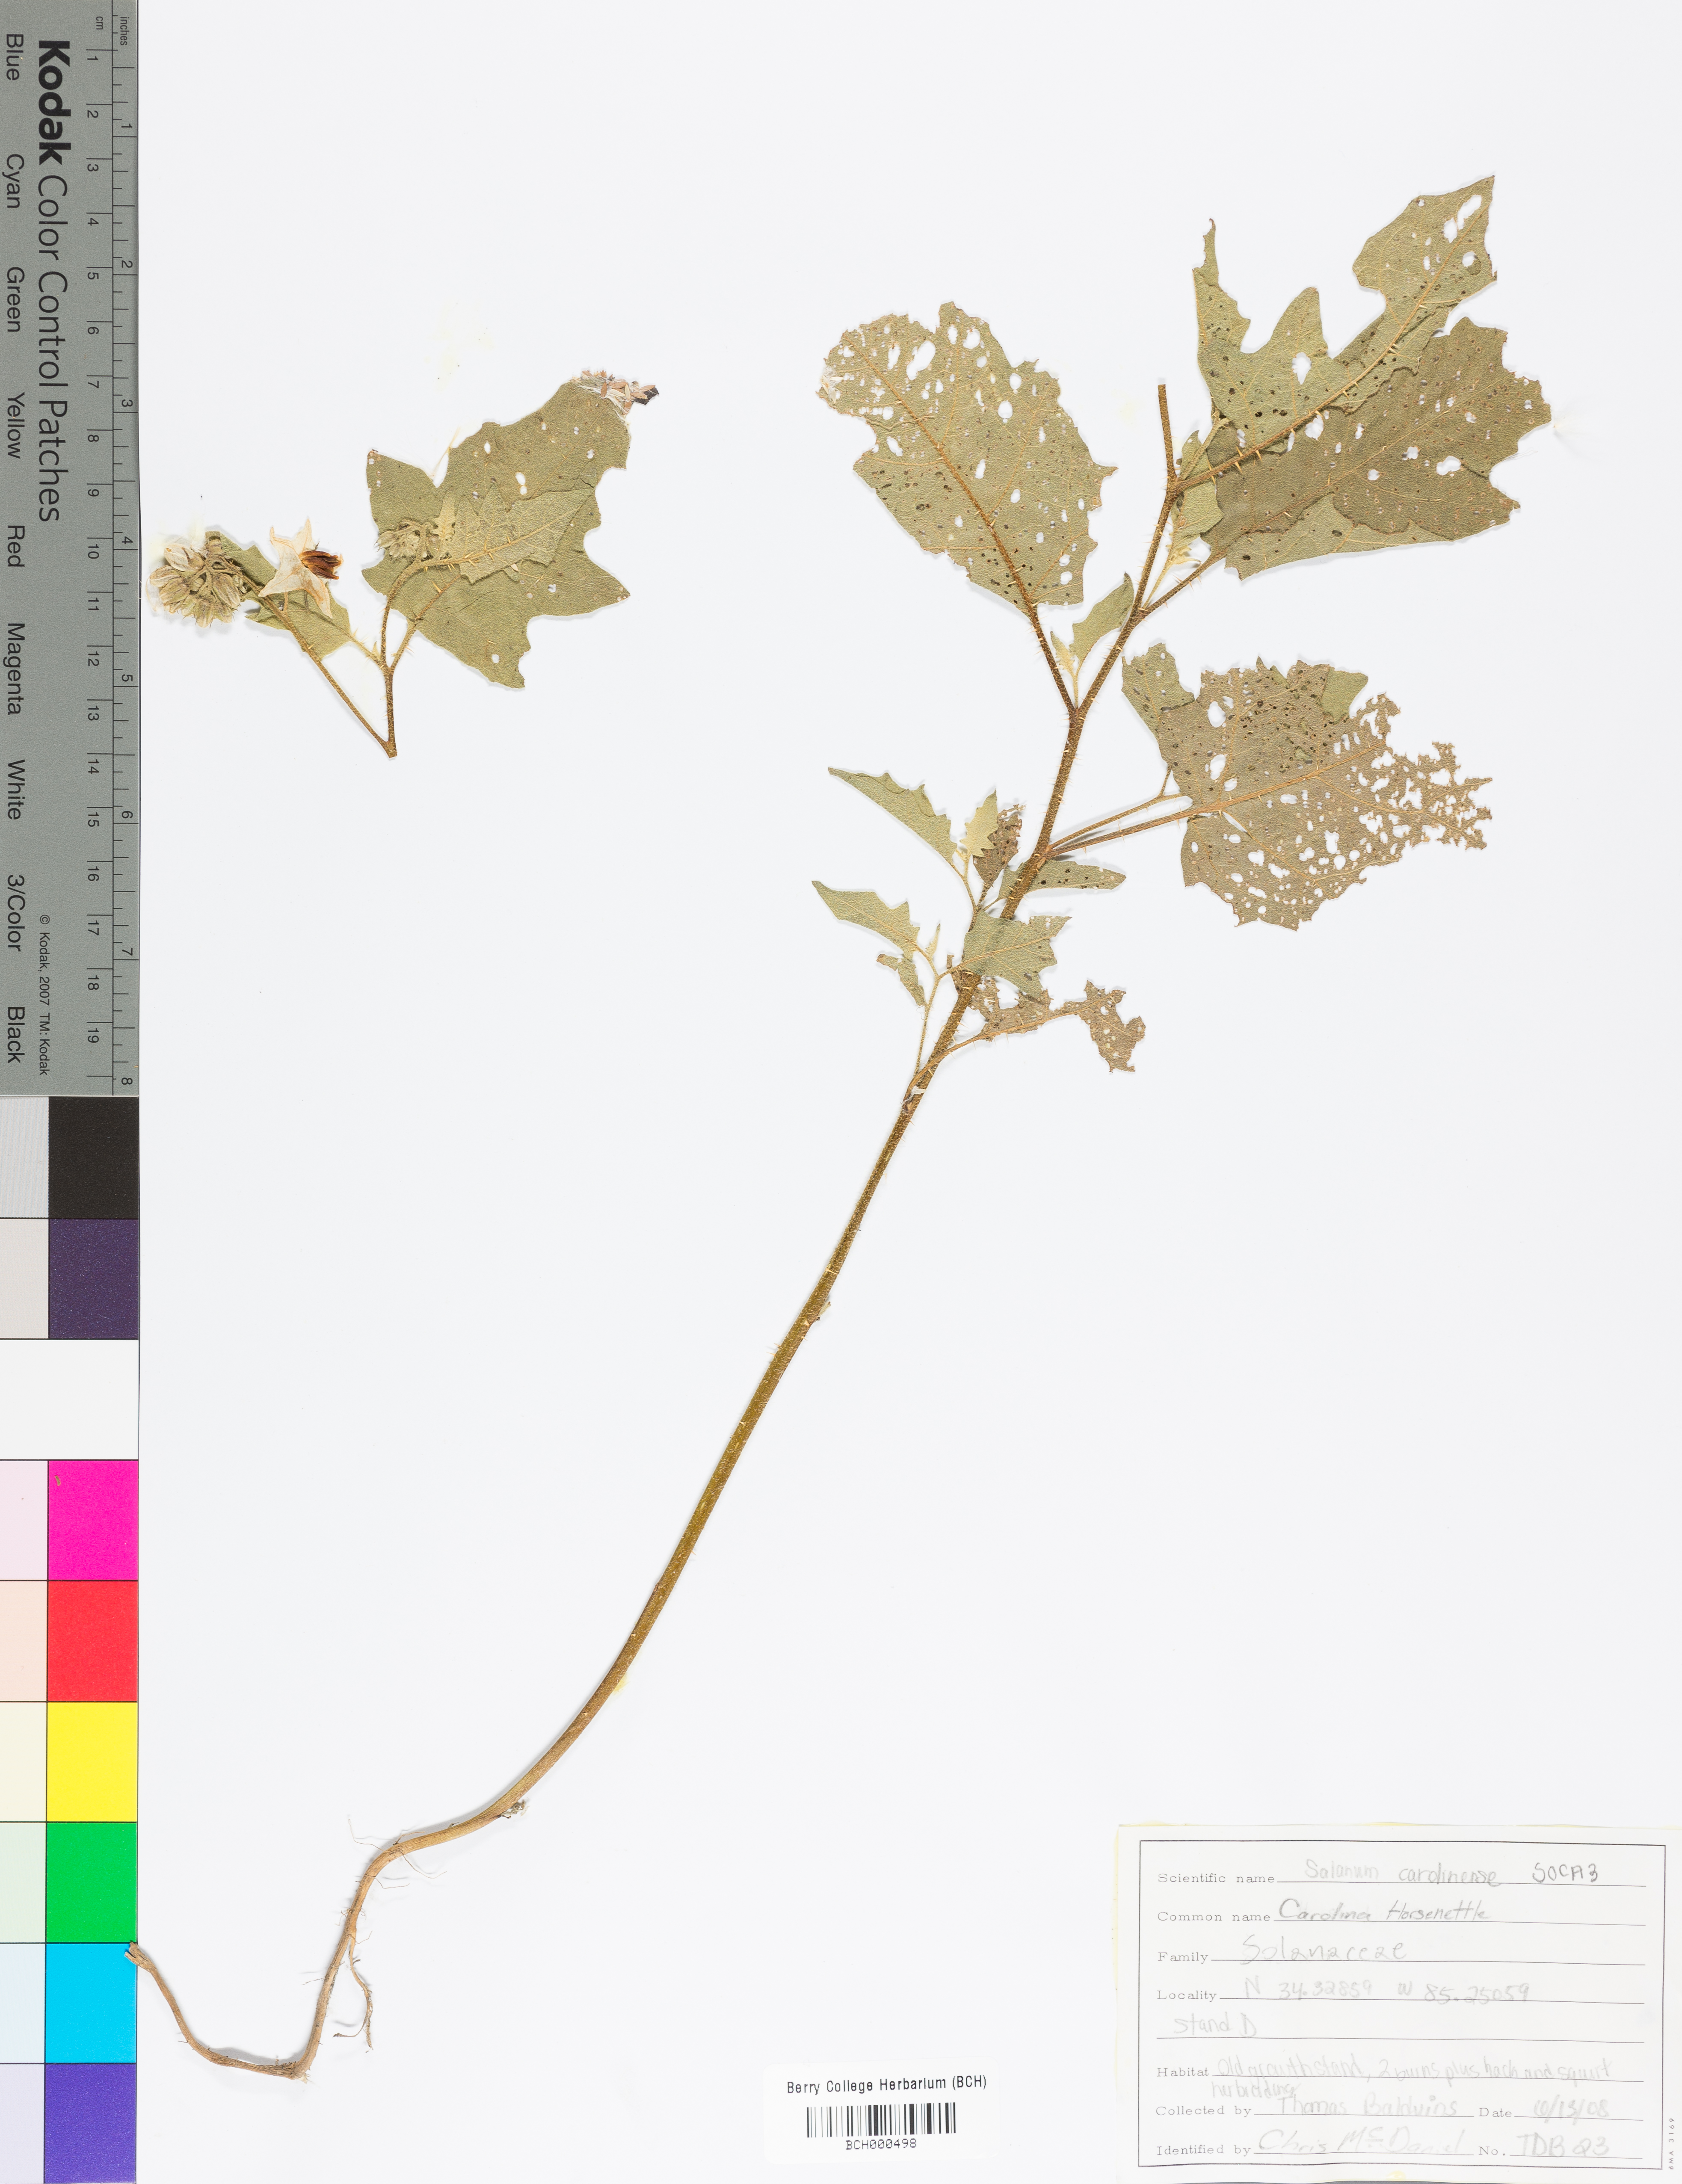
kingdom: Plantae
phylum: Tracheophyta
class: Magnoliopsida
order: Solanales
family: Solanaceae
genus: Solanum
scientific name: Solanum carolinense
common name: Horse-nettle
